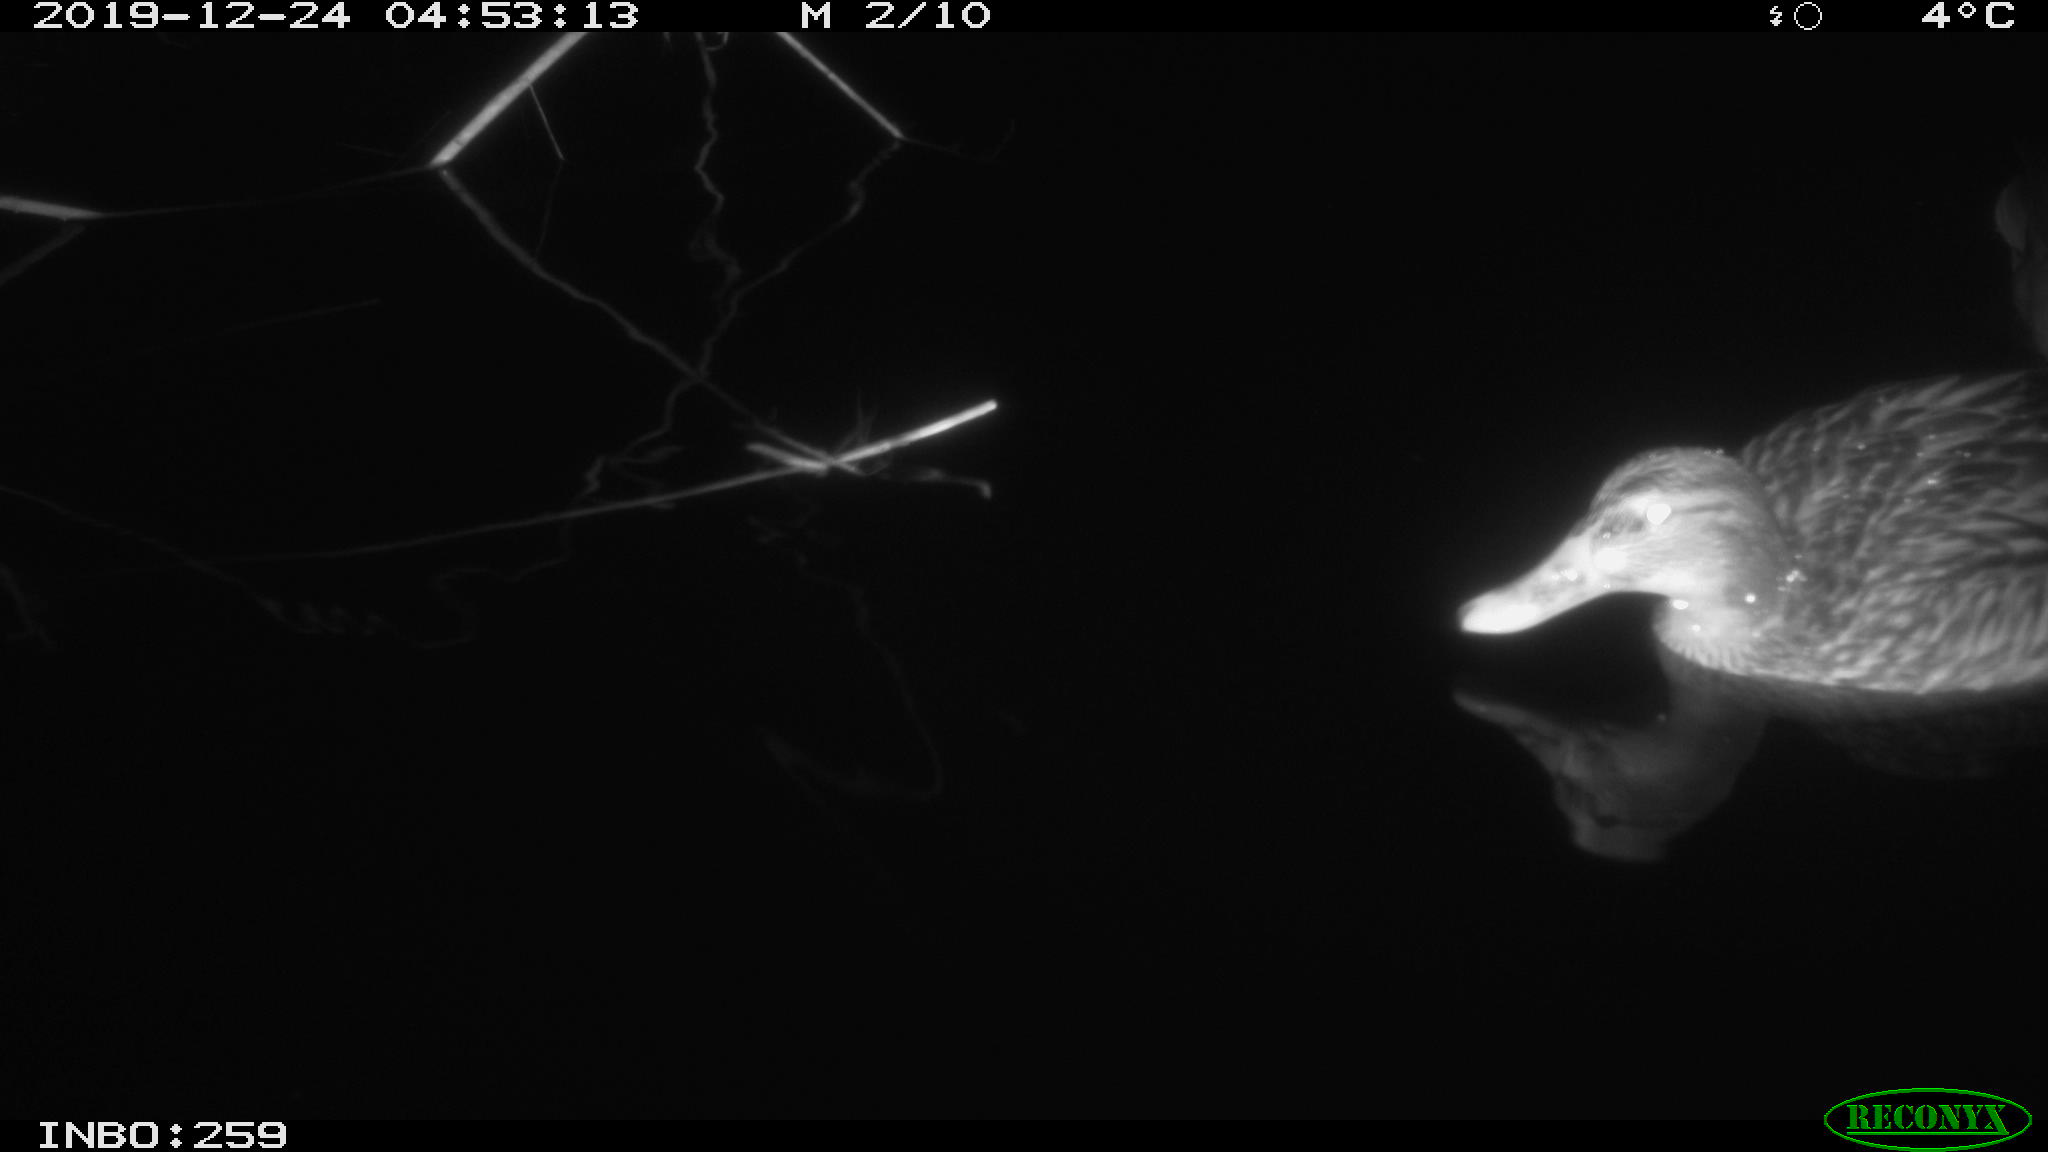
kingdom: Animalia
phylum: Chordata
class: Aves
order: Anseriformes
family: Anatidae
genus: Anas
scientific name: Anas platyrhynchos
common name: Mallard
